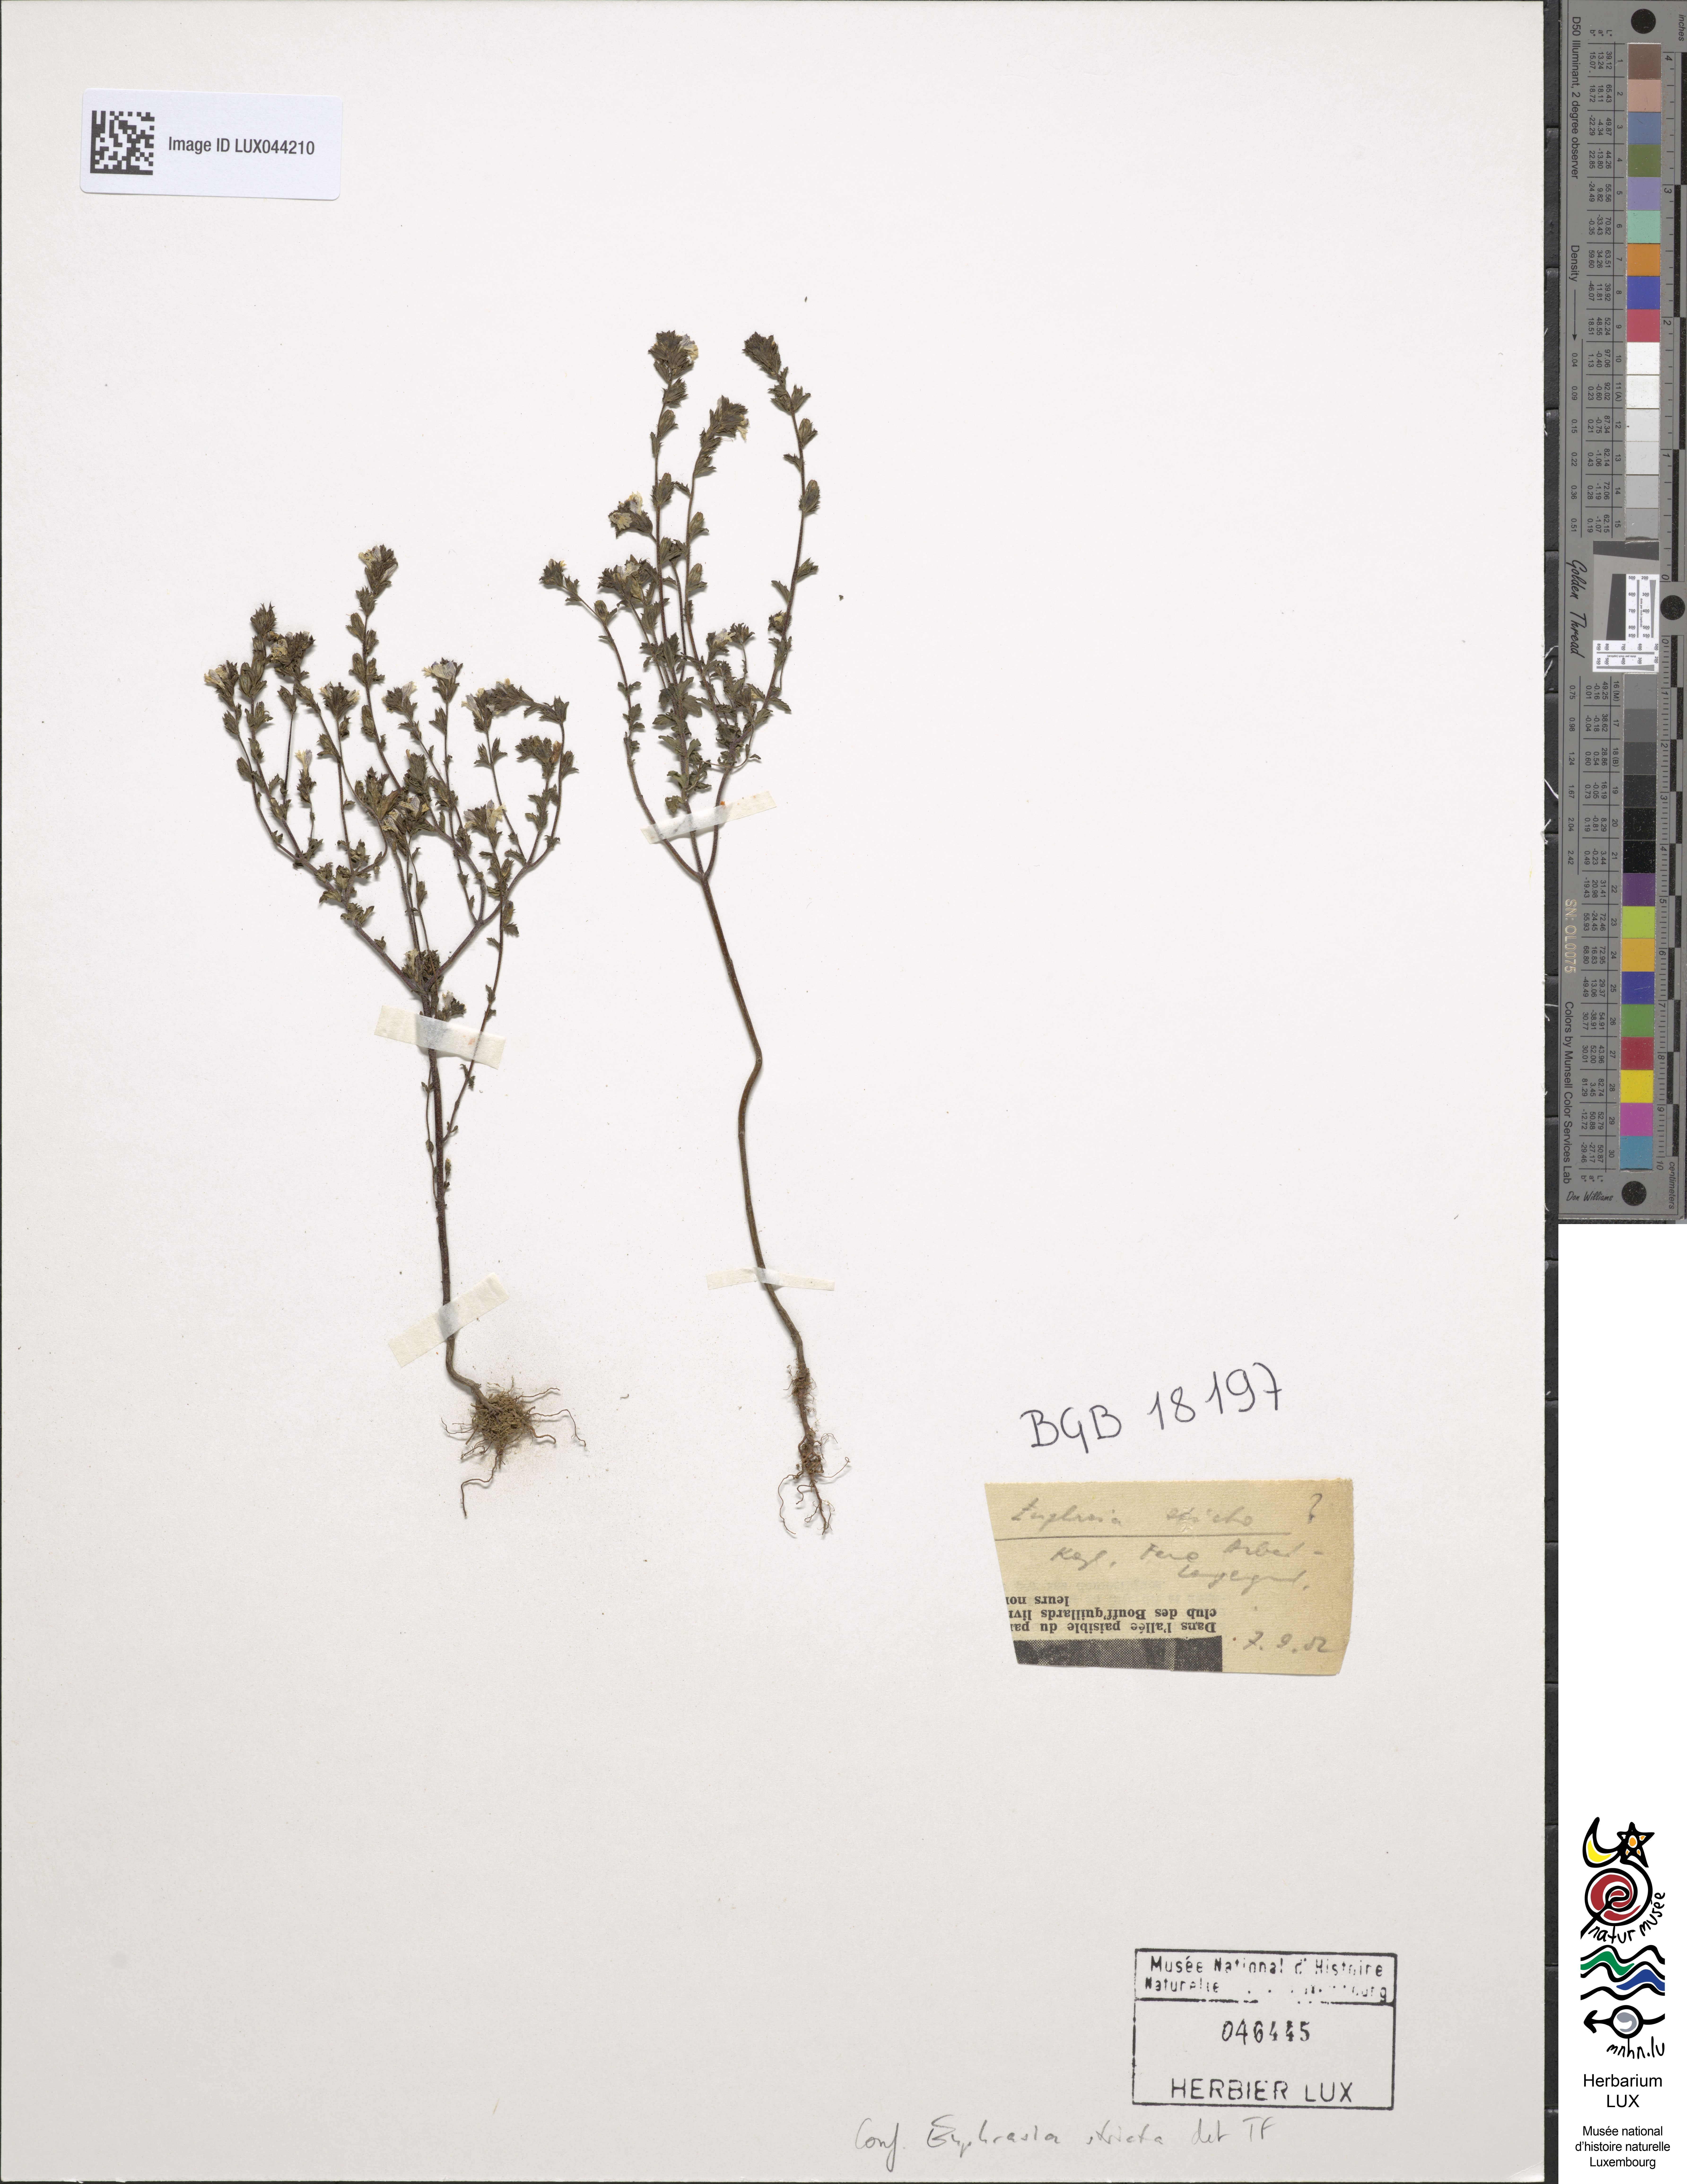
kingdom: Plantae
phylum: Tracheophyta
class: Magnoliopsida
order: Lamiales
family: Orobanchaceae
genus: Euphrasia
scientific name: Euphrasia stricta
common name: Drug eyebright
